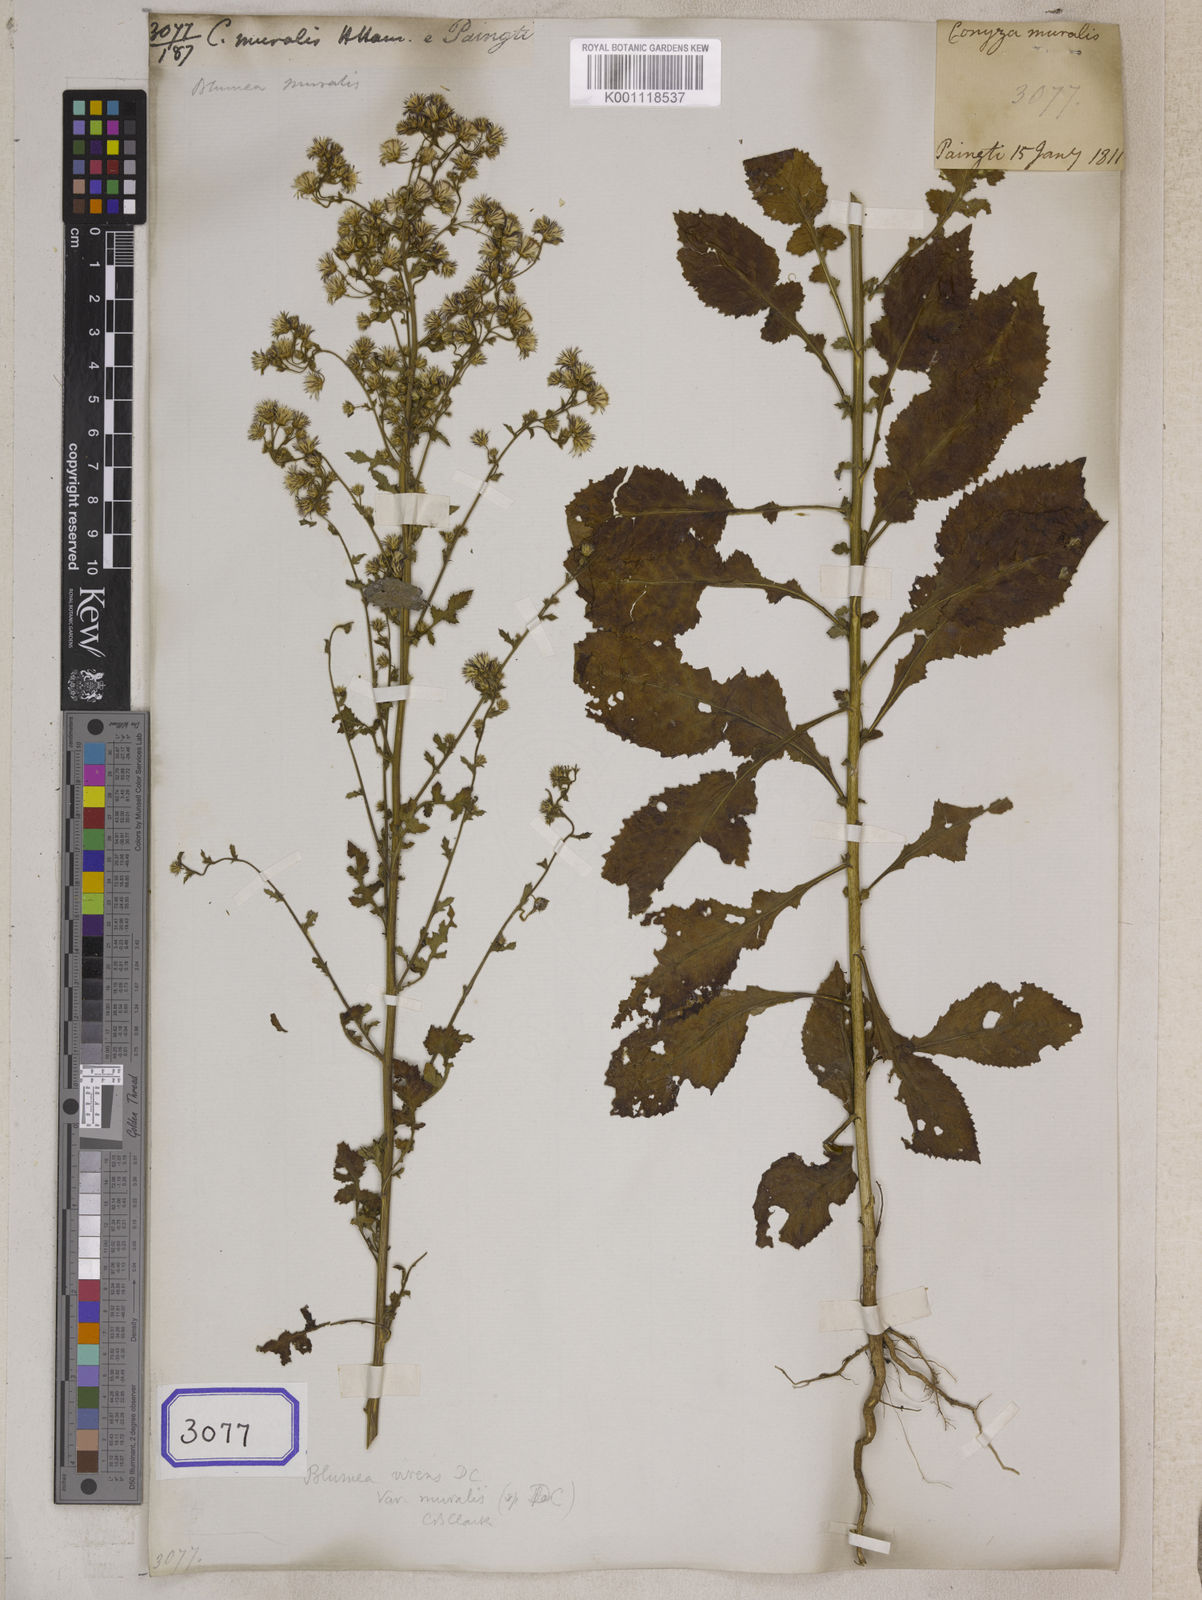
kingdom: Plantae
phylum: Tracheophyta
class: Magnoliopsida
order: Asterales
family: Asteraceae
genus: Pluchea
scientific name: Pluchea paniculata
